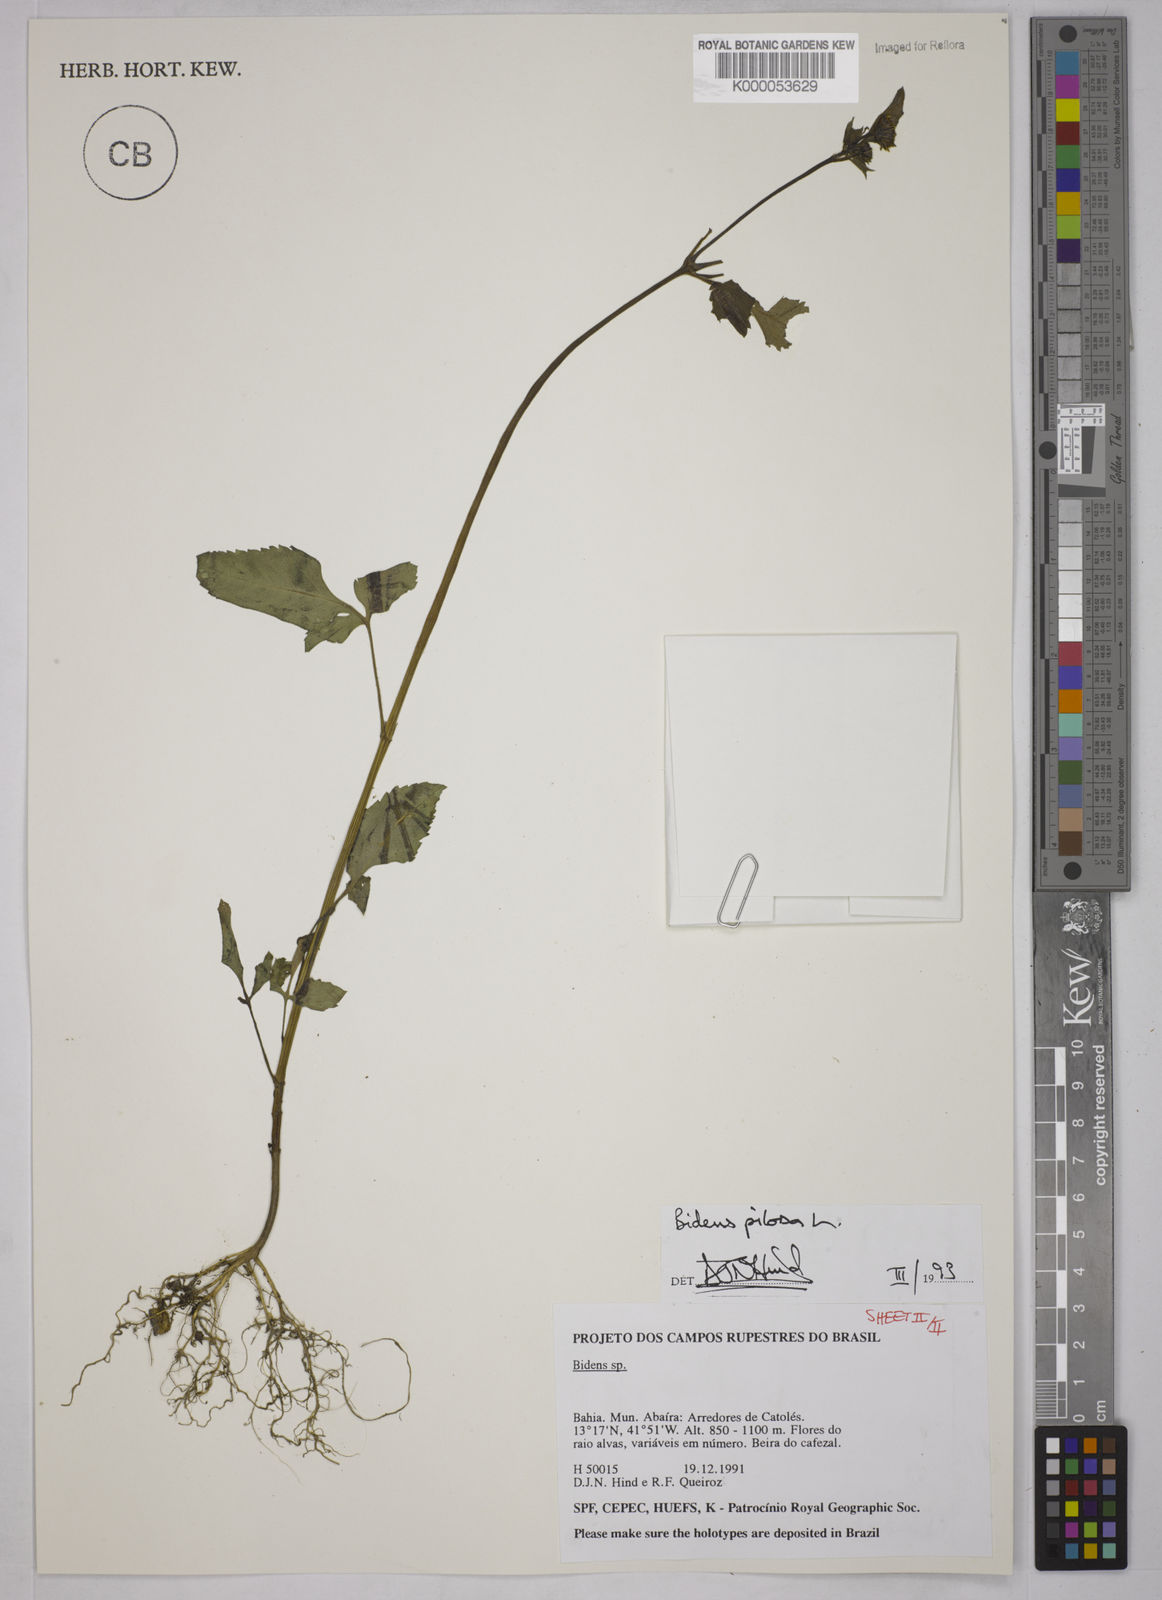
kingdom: Plantae
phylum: Tracheophyta
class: Magnoliopsida
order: Asterales
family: Asteraceae
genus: Bidens
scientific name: Bidens pilosa
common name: Black-jack
